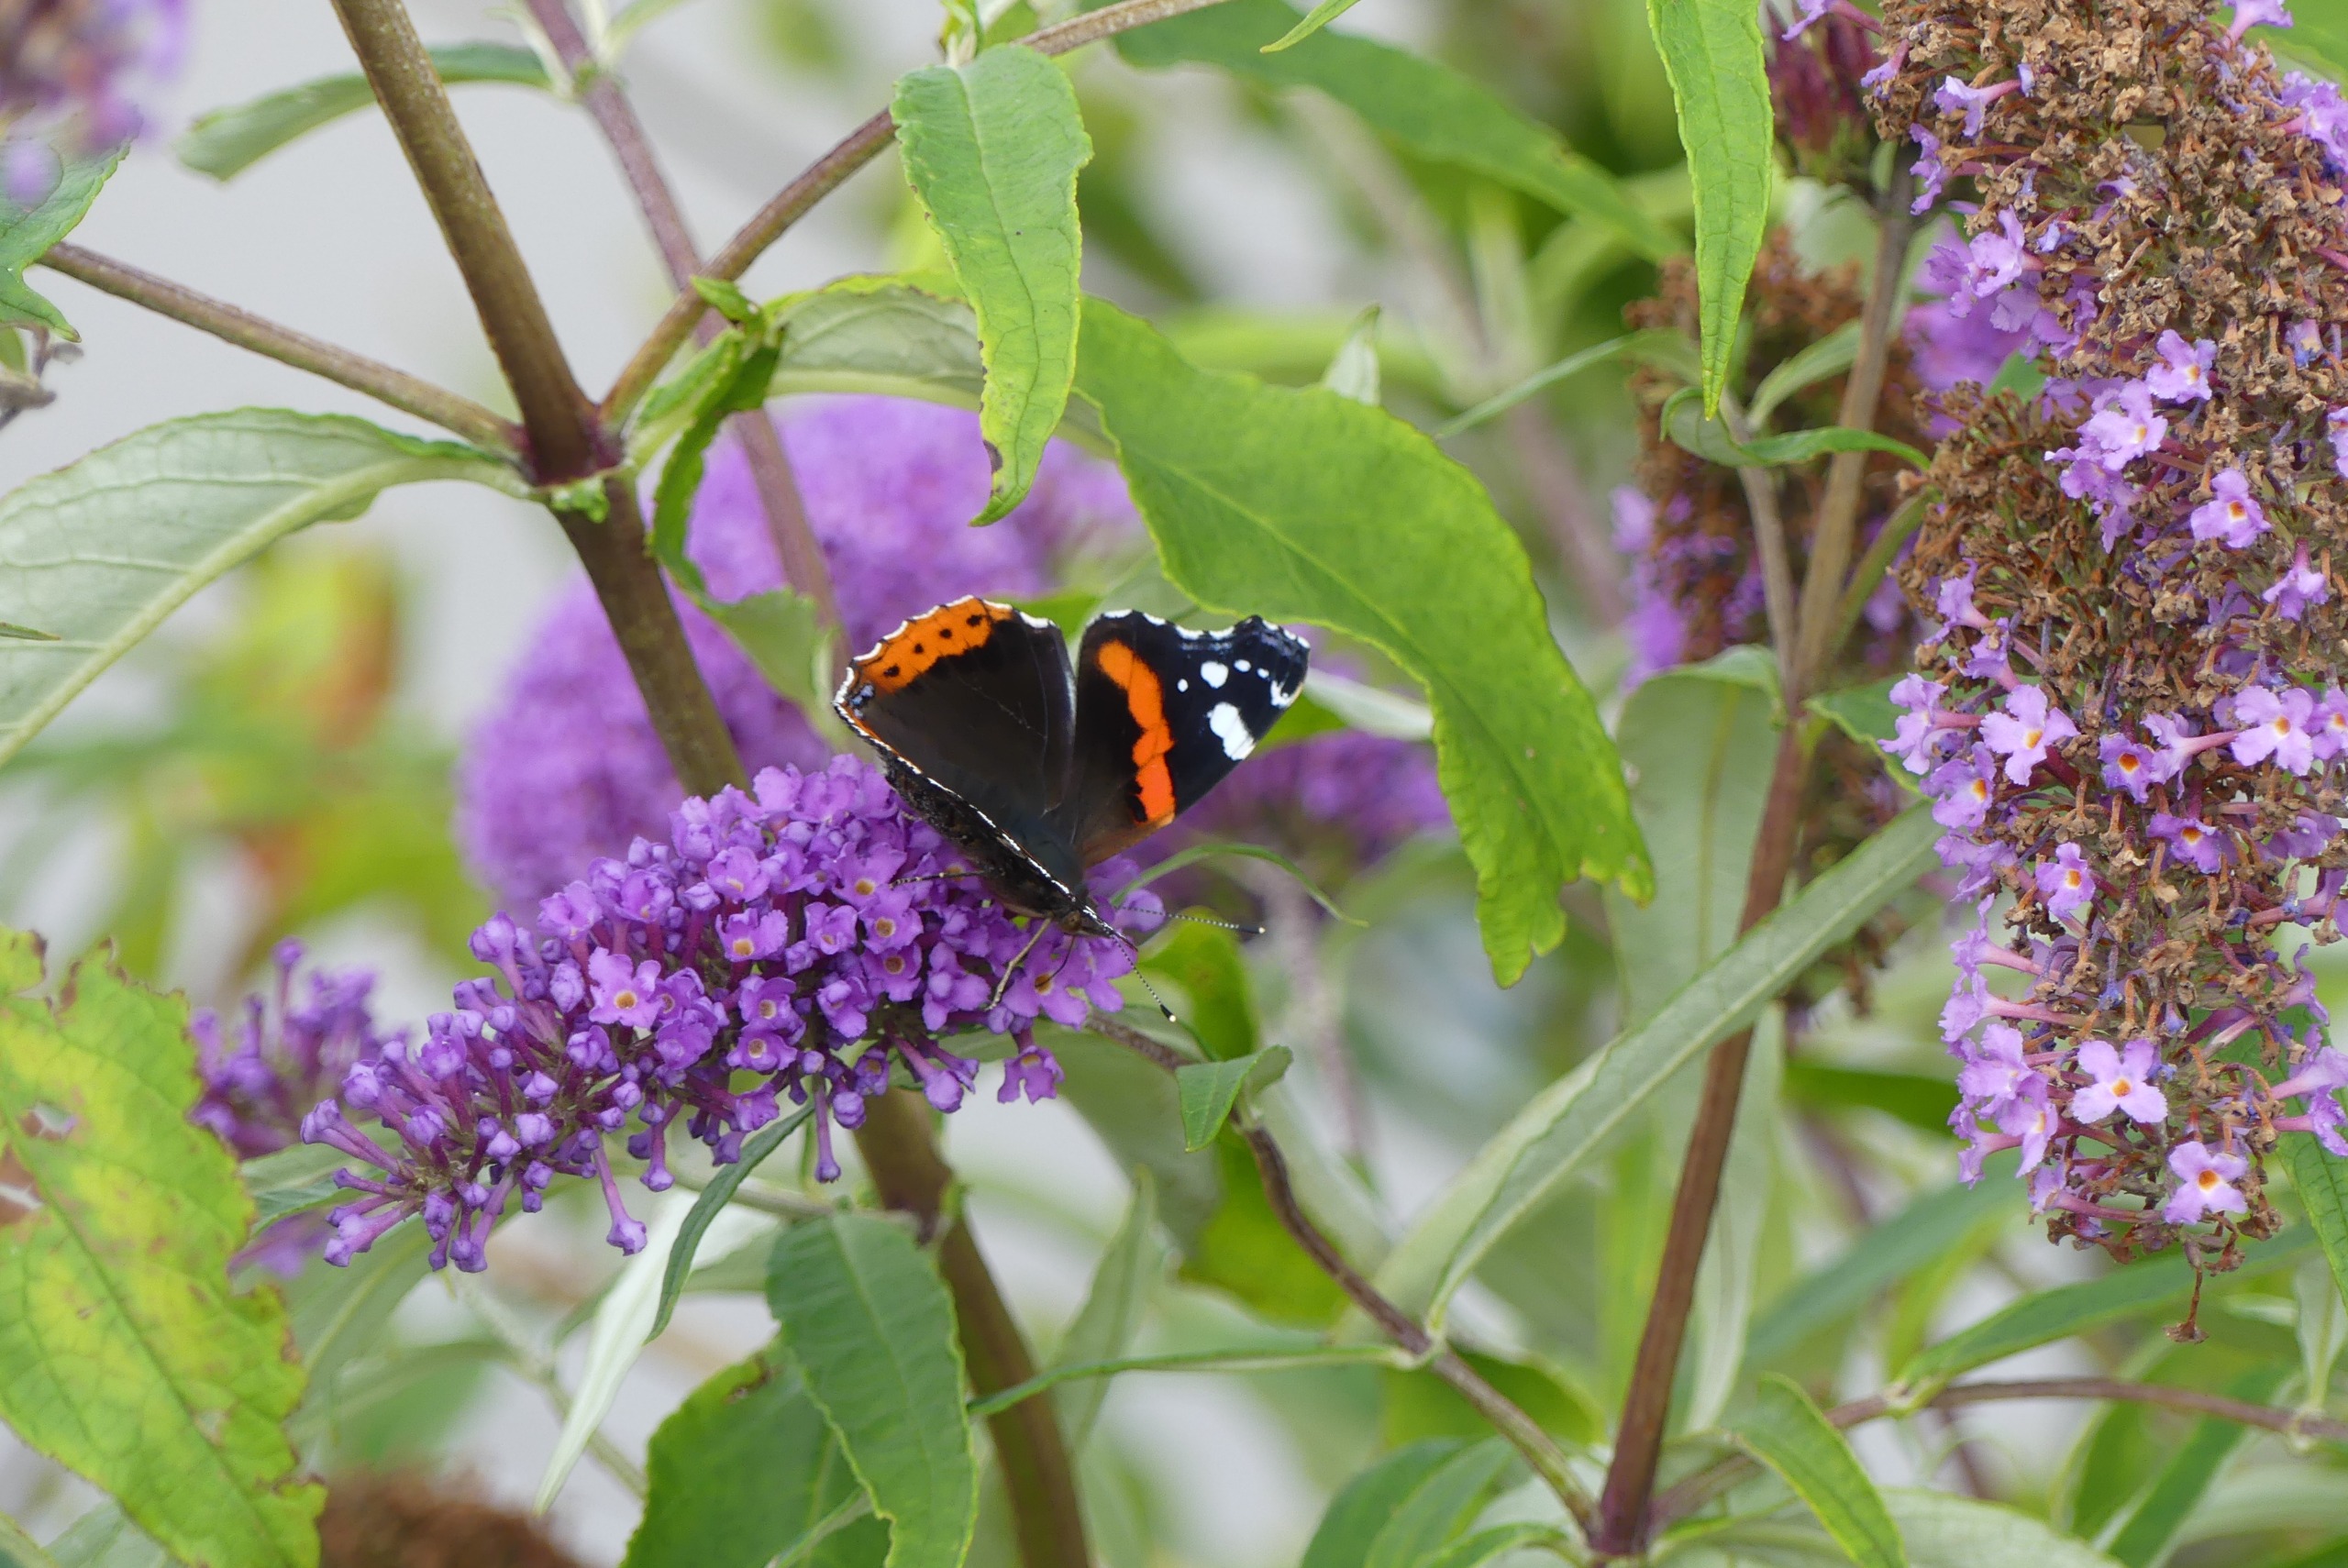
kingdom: Animalia
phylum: Arthropoda
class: Insecta
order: Lepidoptera
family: Nymphalidae
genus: Vanessa
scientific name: Vanessa atalanta
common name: Admiral
